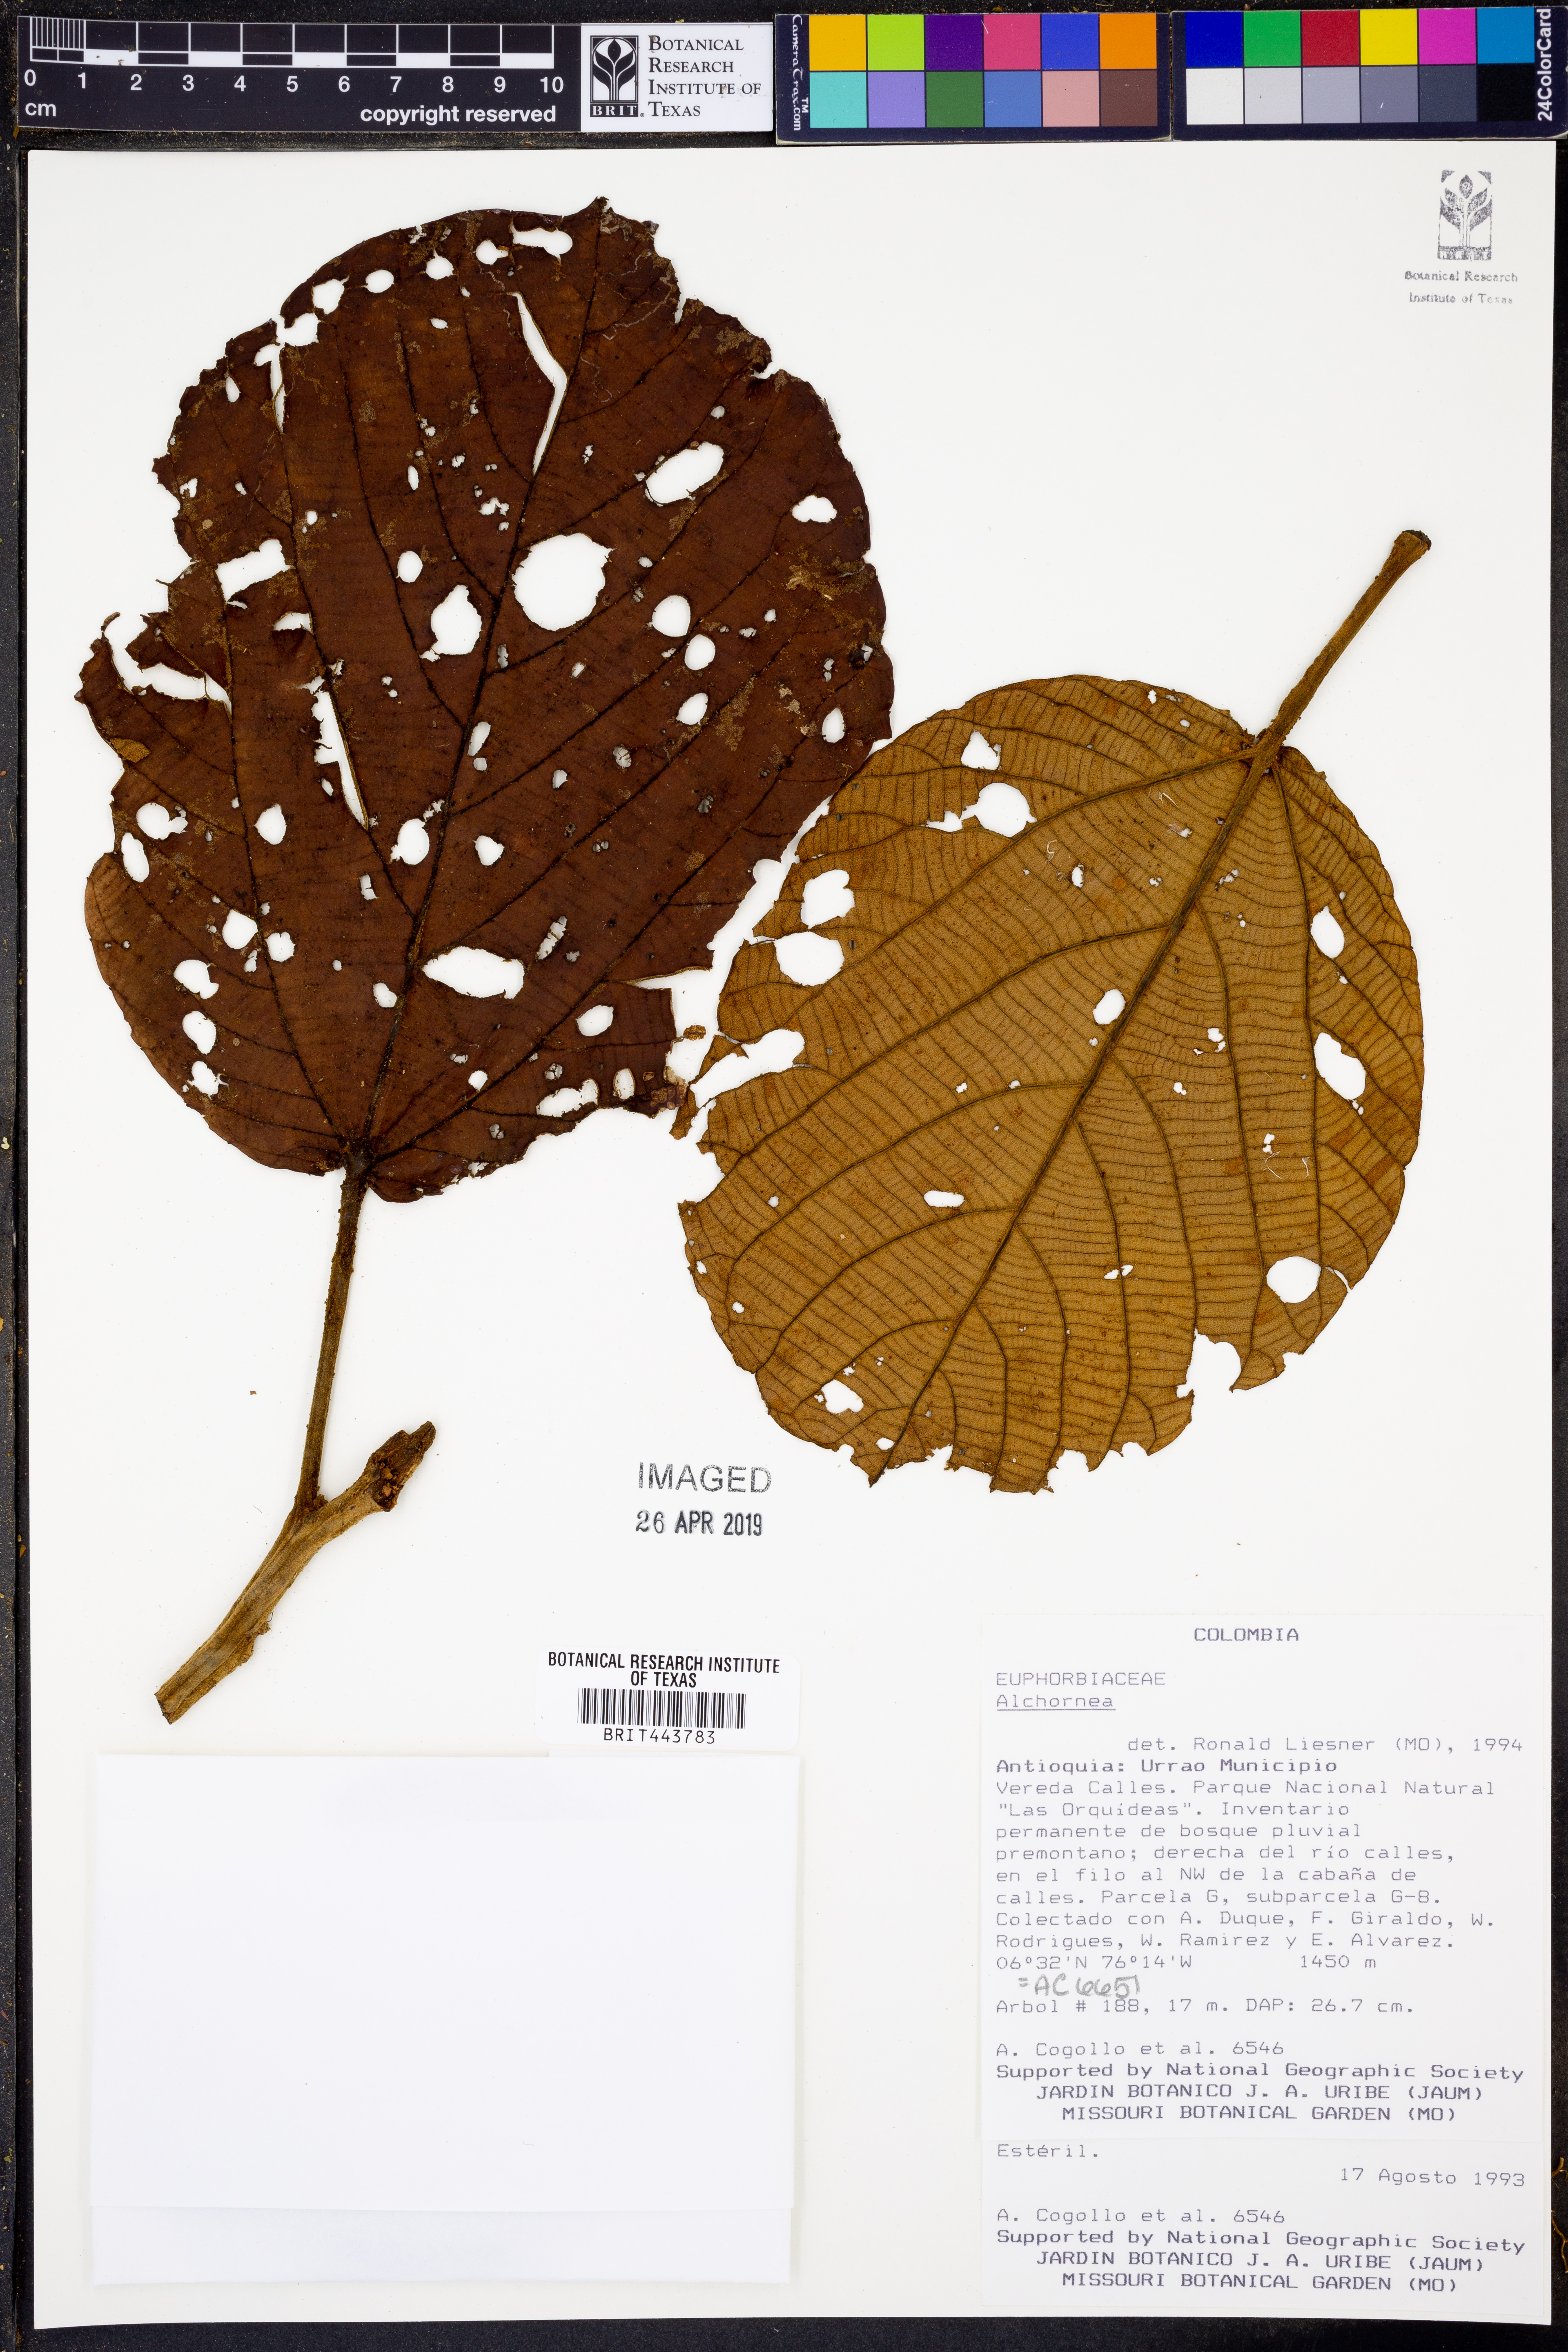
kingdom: Plantae
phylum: Tracheophyta
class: Magnoliopsida
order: Malpighiales
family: Euphorbiaceae
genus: Alchornea
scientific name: Alchornea
